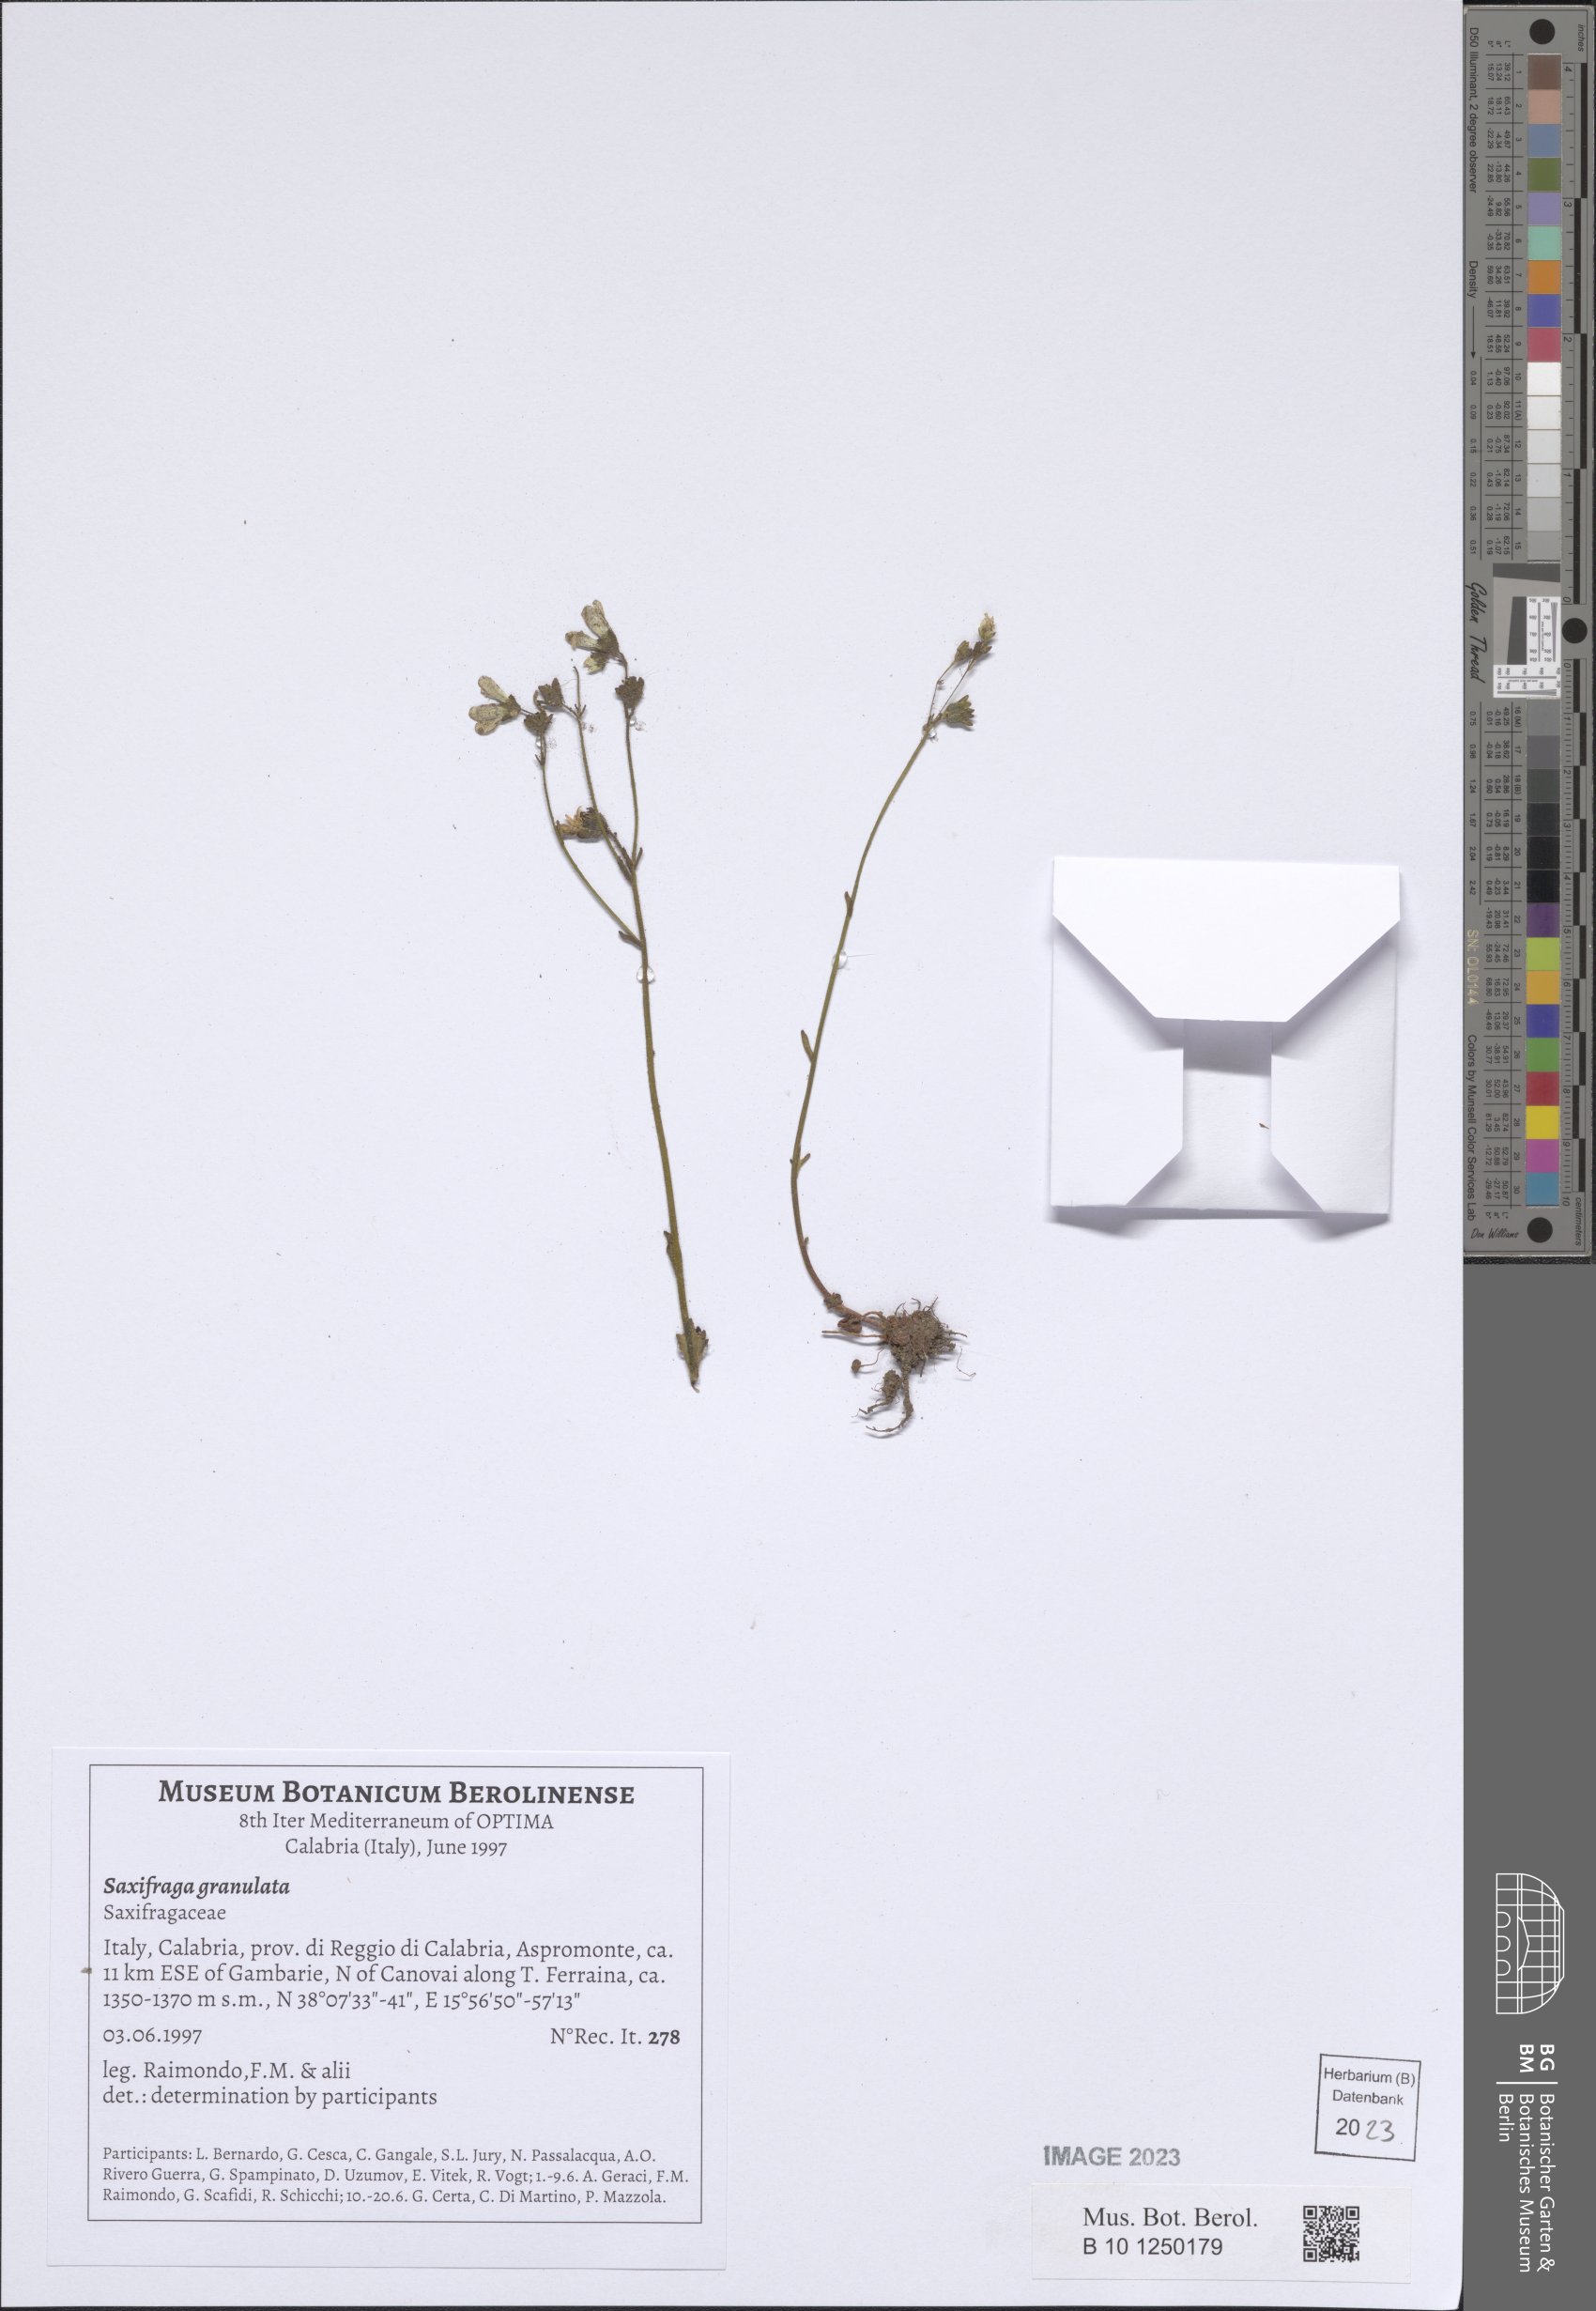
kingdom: Plantae
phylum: Tracheophyta
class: Magnoliopsida
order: Saxifragales
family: Saxifragaceae
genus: Saxifraga
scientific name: Saxifraga granulata
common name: Meadow saxifrage
